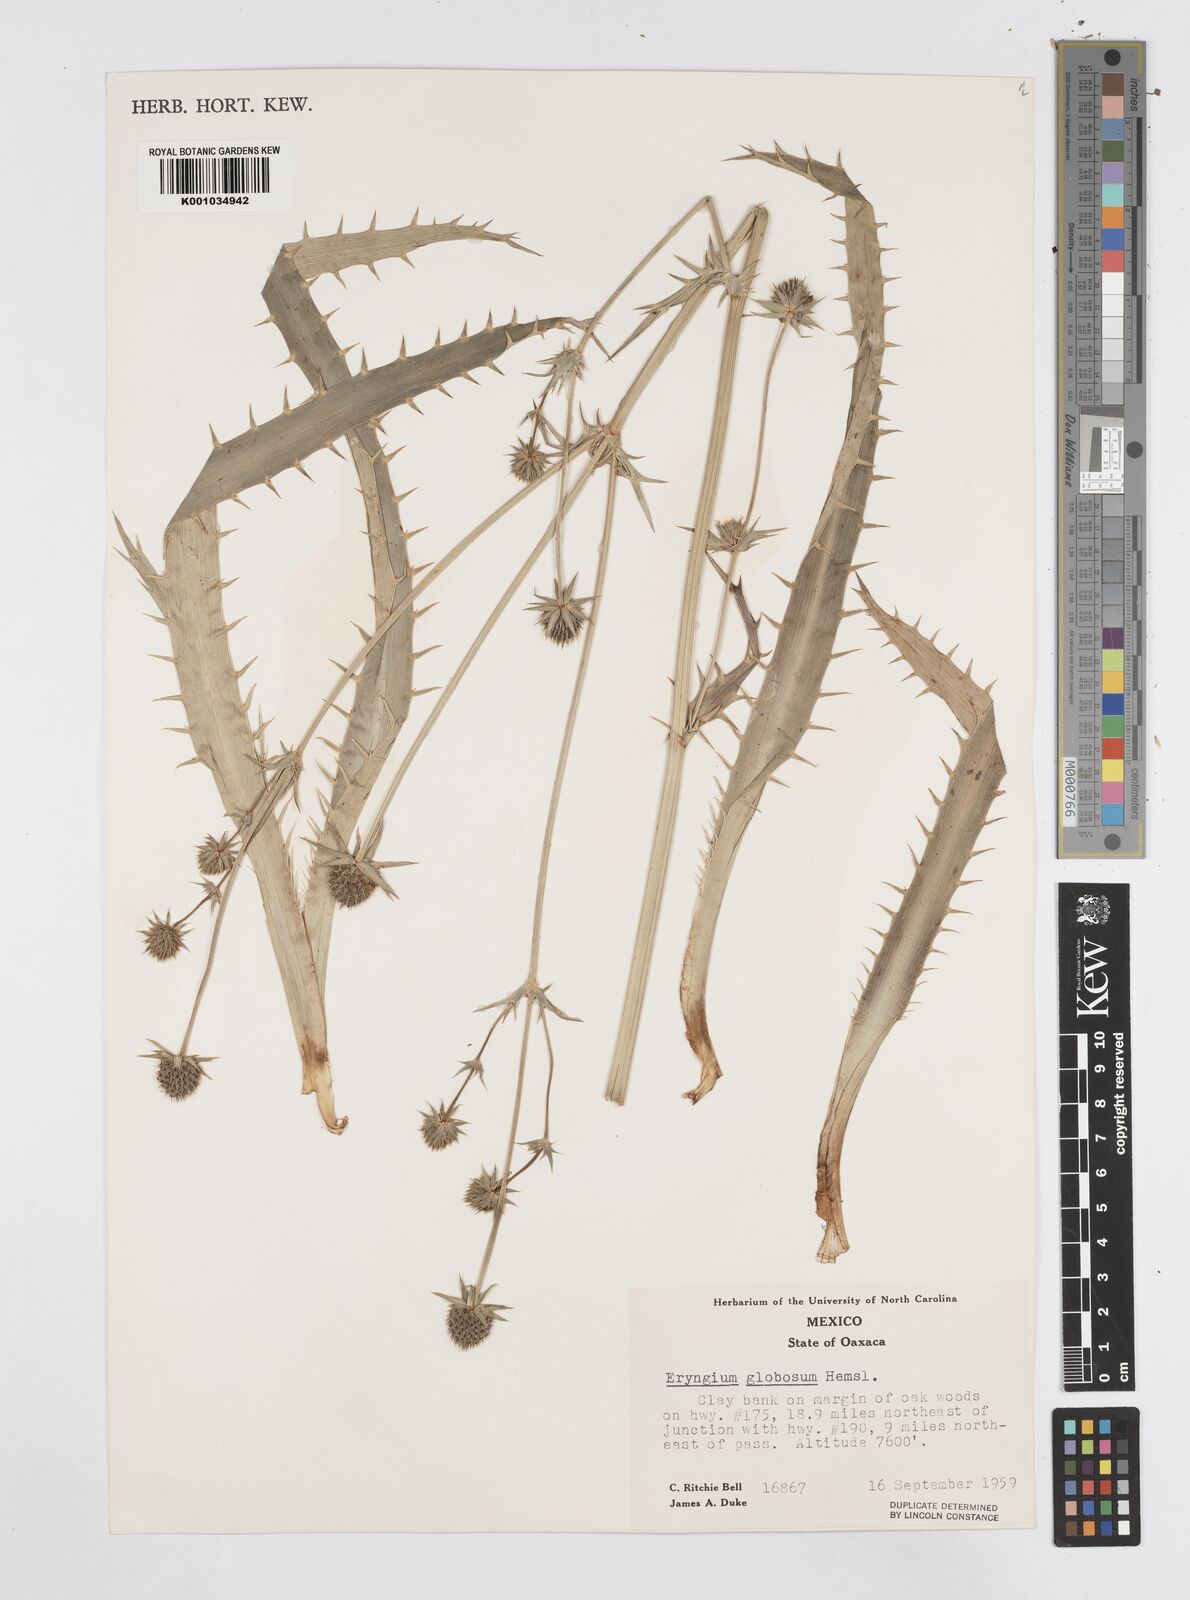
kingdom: Plantae
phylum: Tracheophyta
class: Magnoliopsida
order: Apiales
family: Apiaceae
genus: Eryngium
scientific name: Eryngium palmeri
